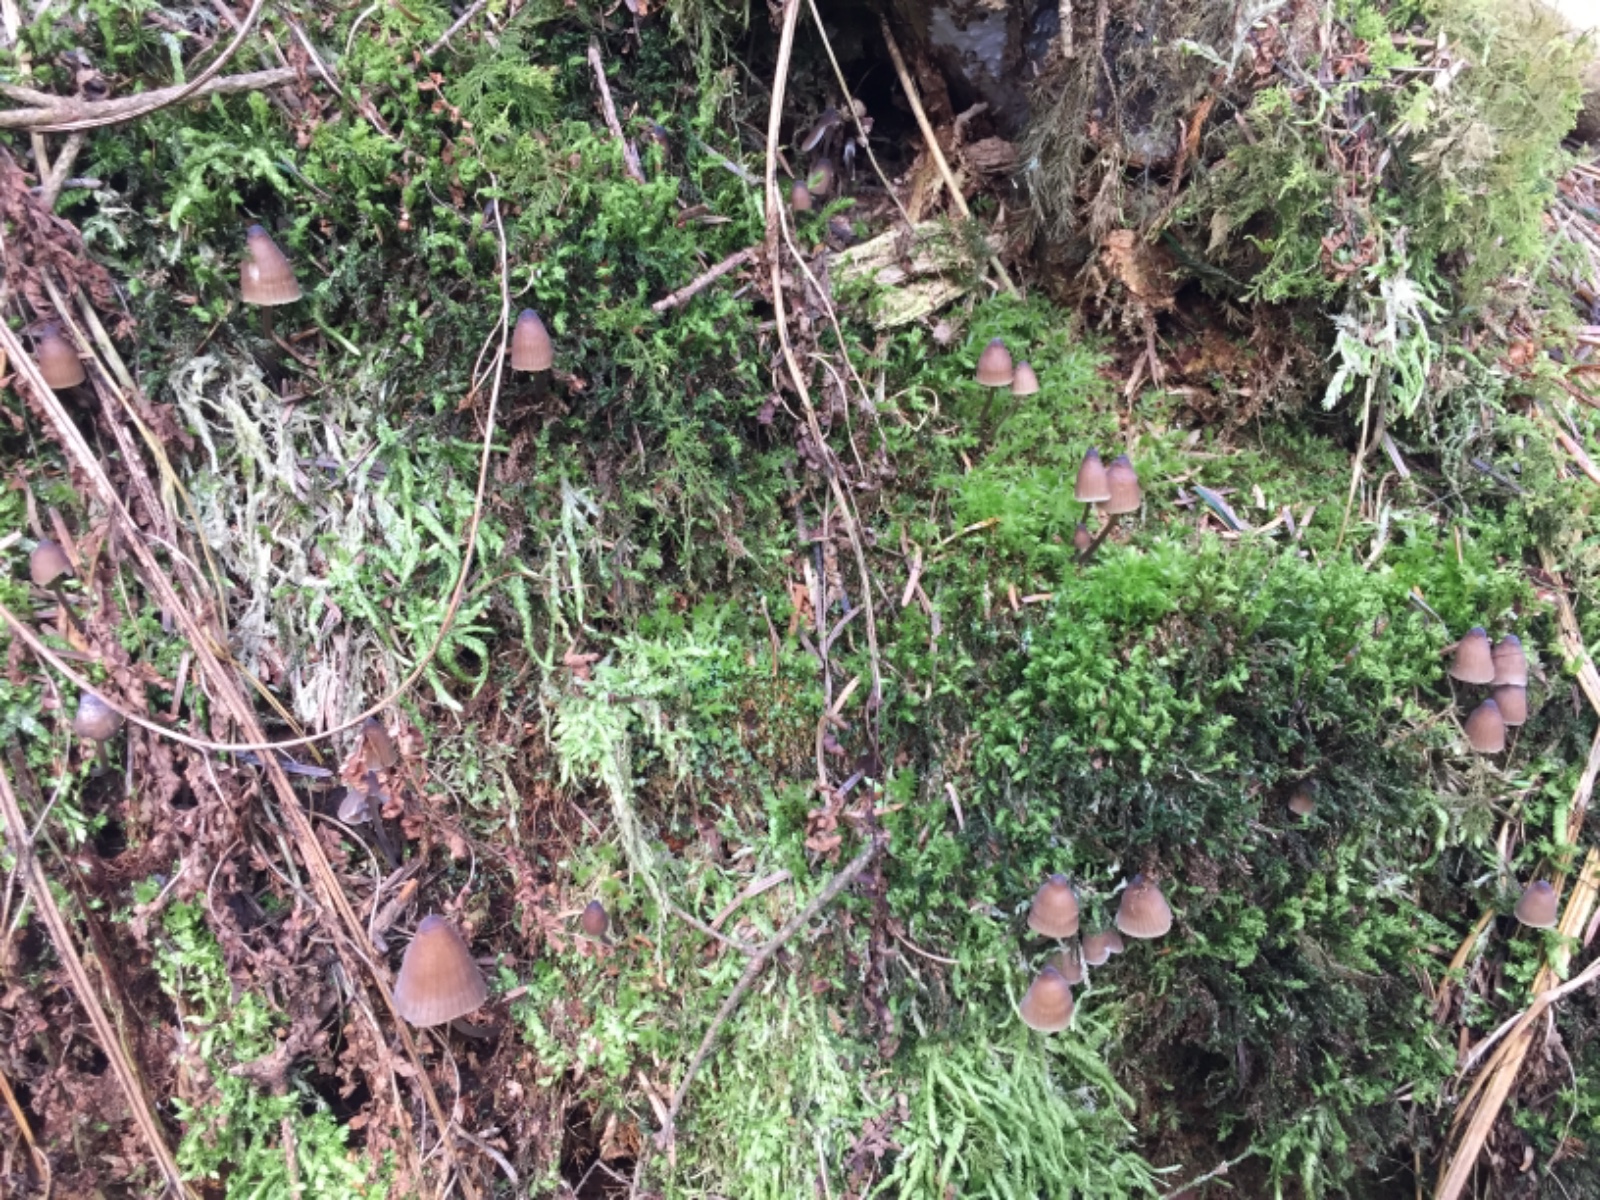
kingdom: Fungi
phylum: Basidiomycota
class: Agaricomycetes
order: Agaricales
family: Mycenaceae
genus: Mycena
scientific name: Mycena silvae-nigrae
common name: tidlig huesvamp
